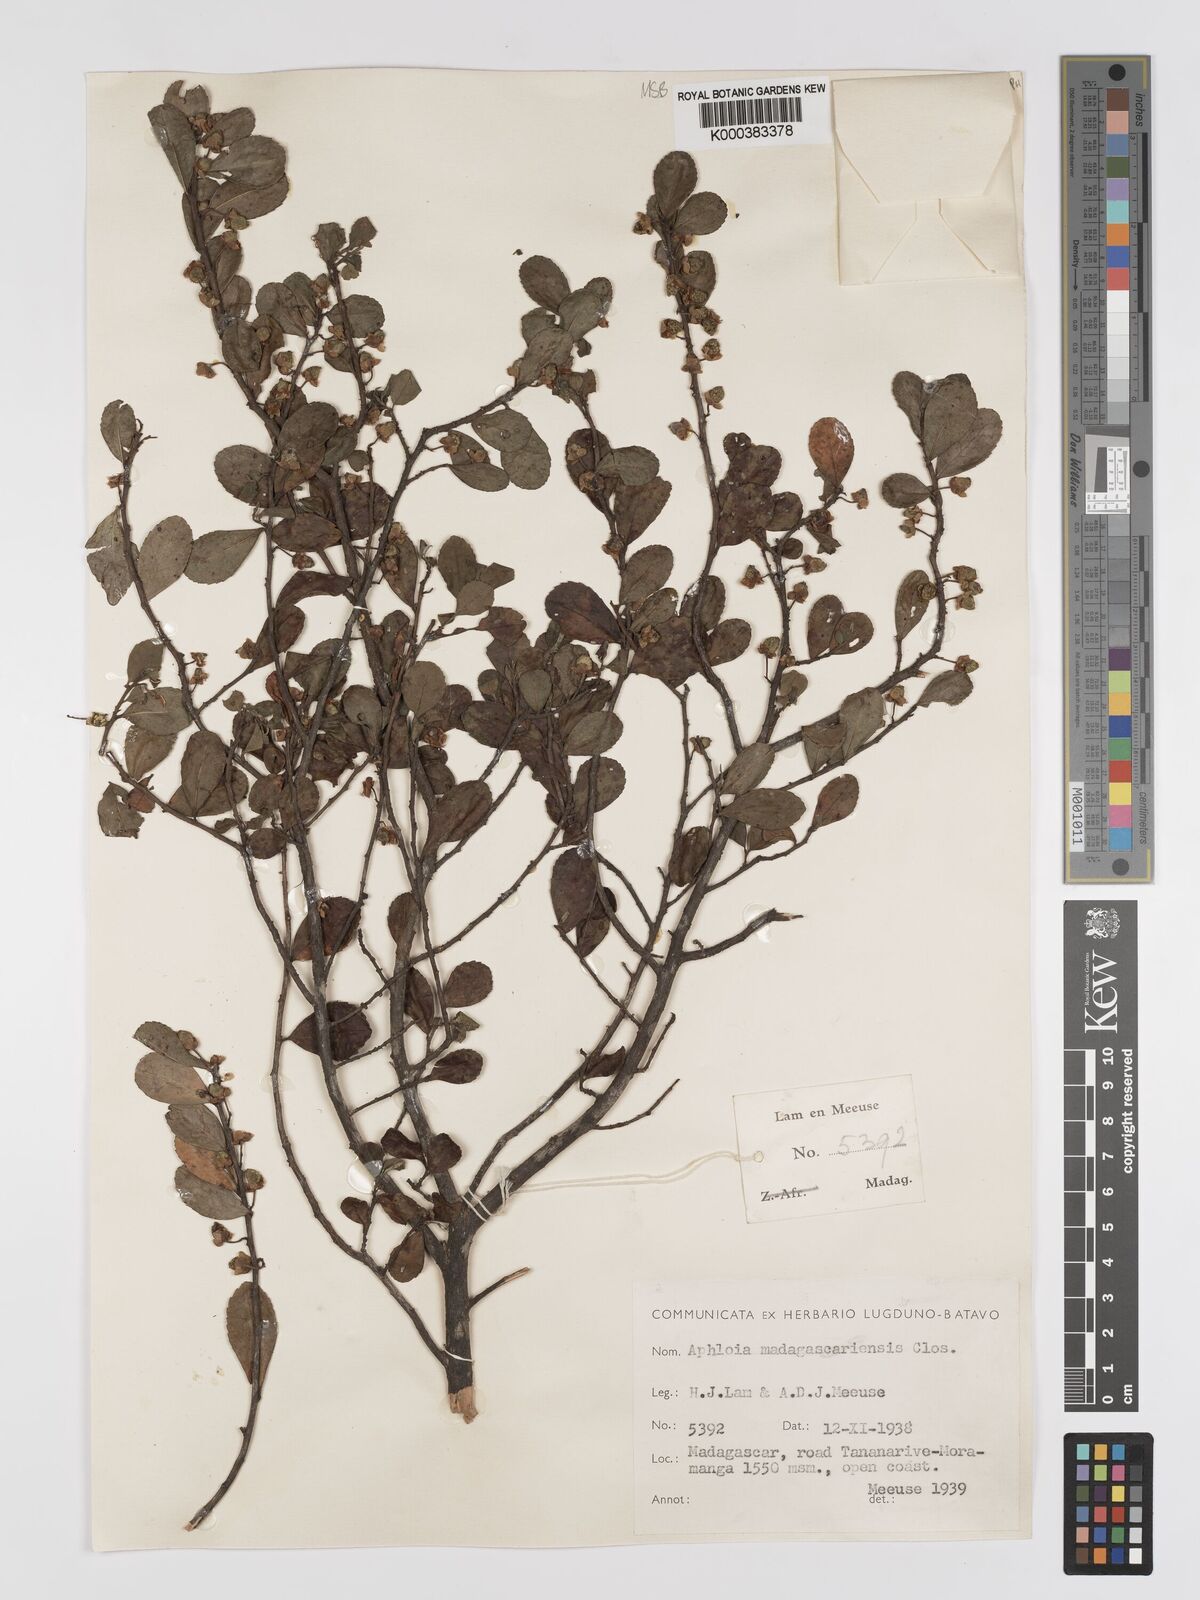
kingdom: Plantae
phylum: Tracheophyta
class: Magnoliopsida
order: Crossosomatales
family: Aphloiaceae
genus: Aphloia
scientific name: Aphloia theiformis
